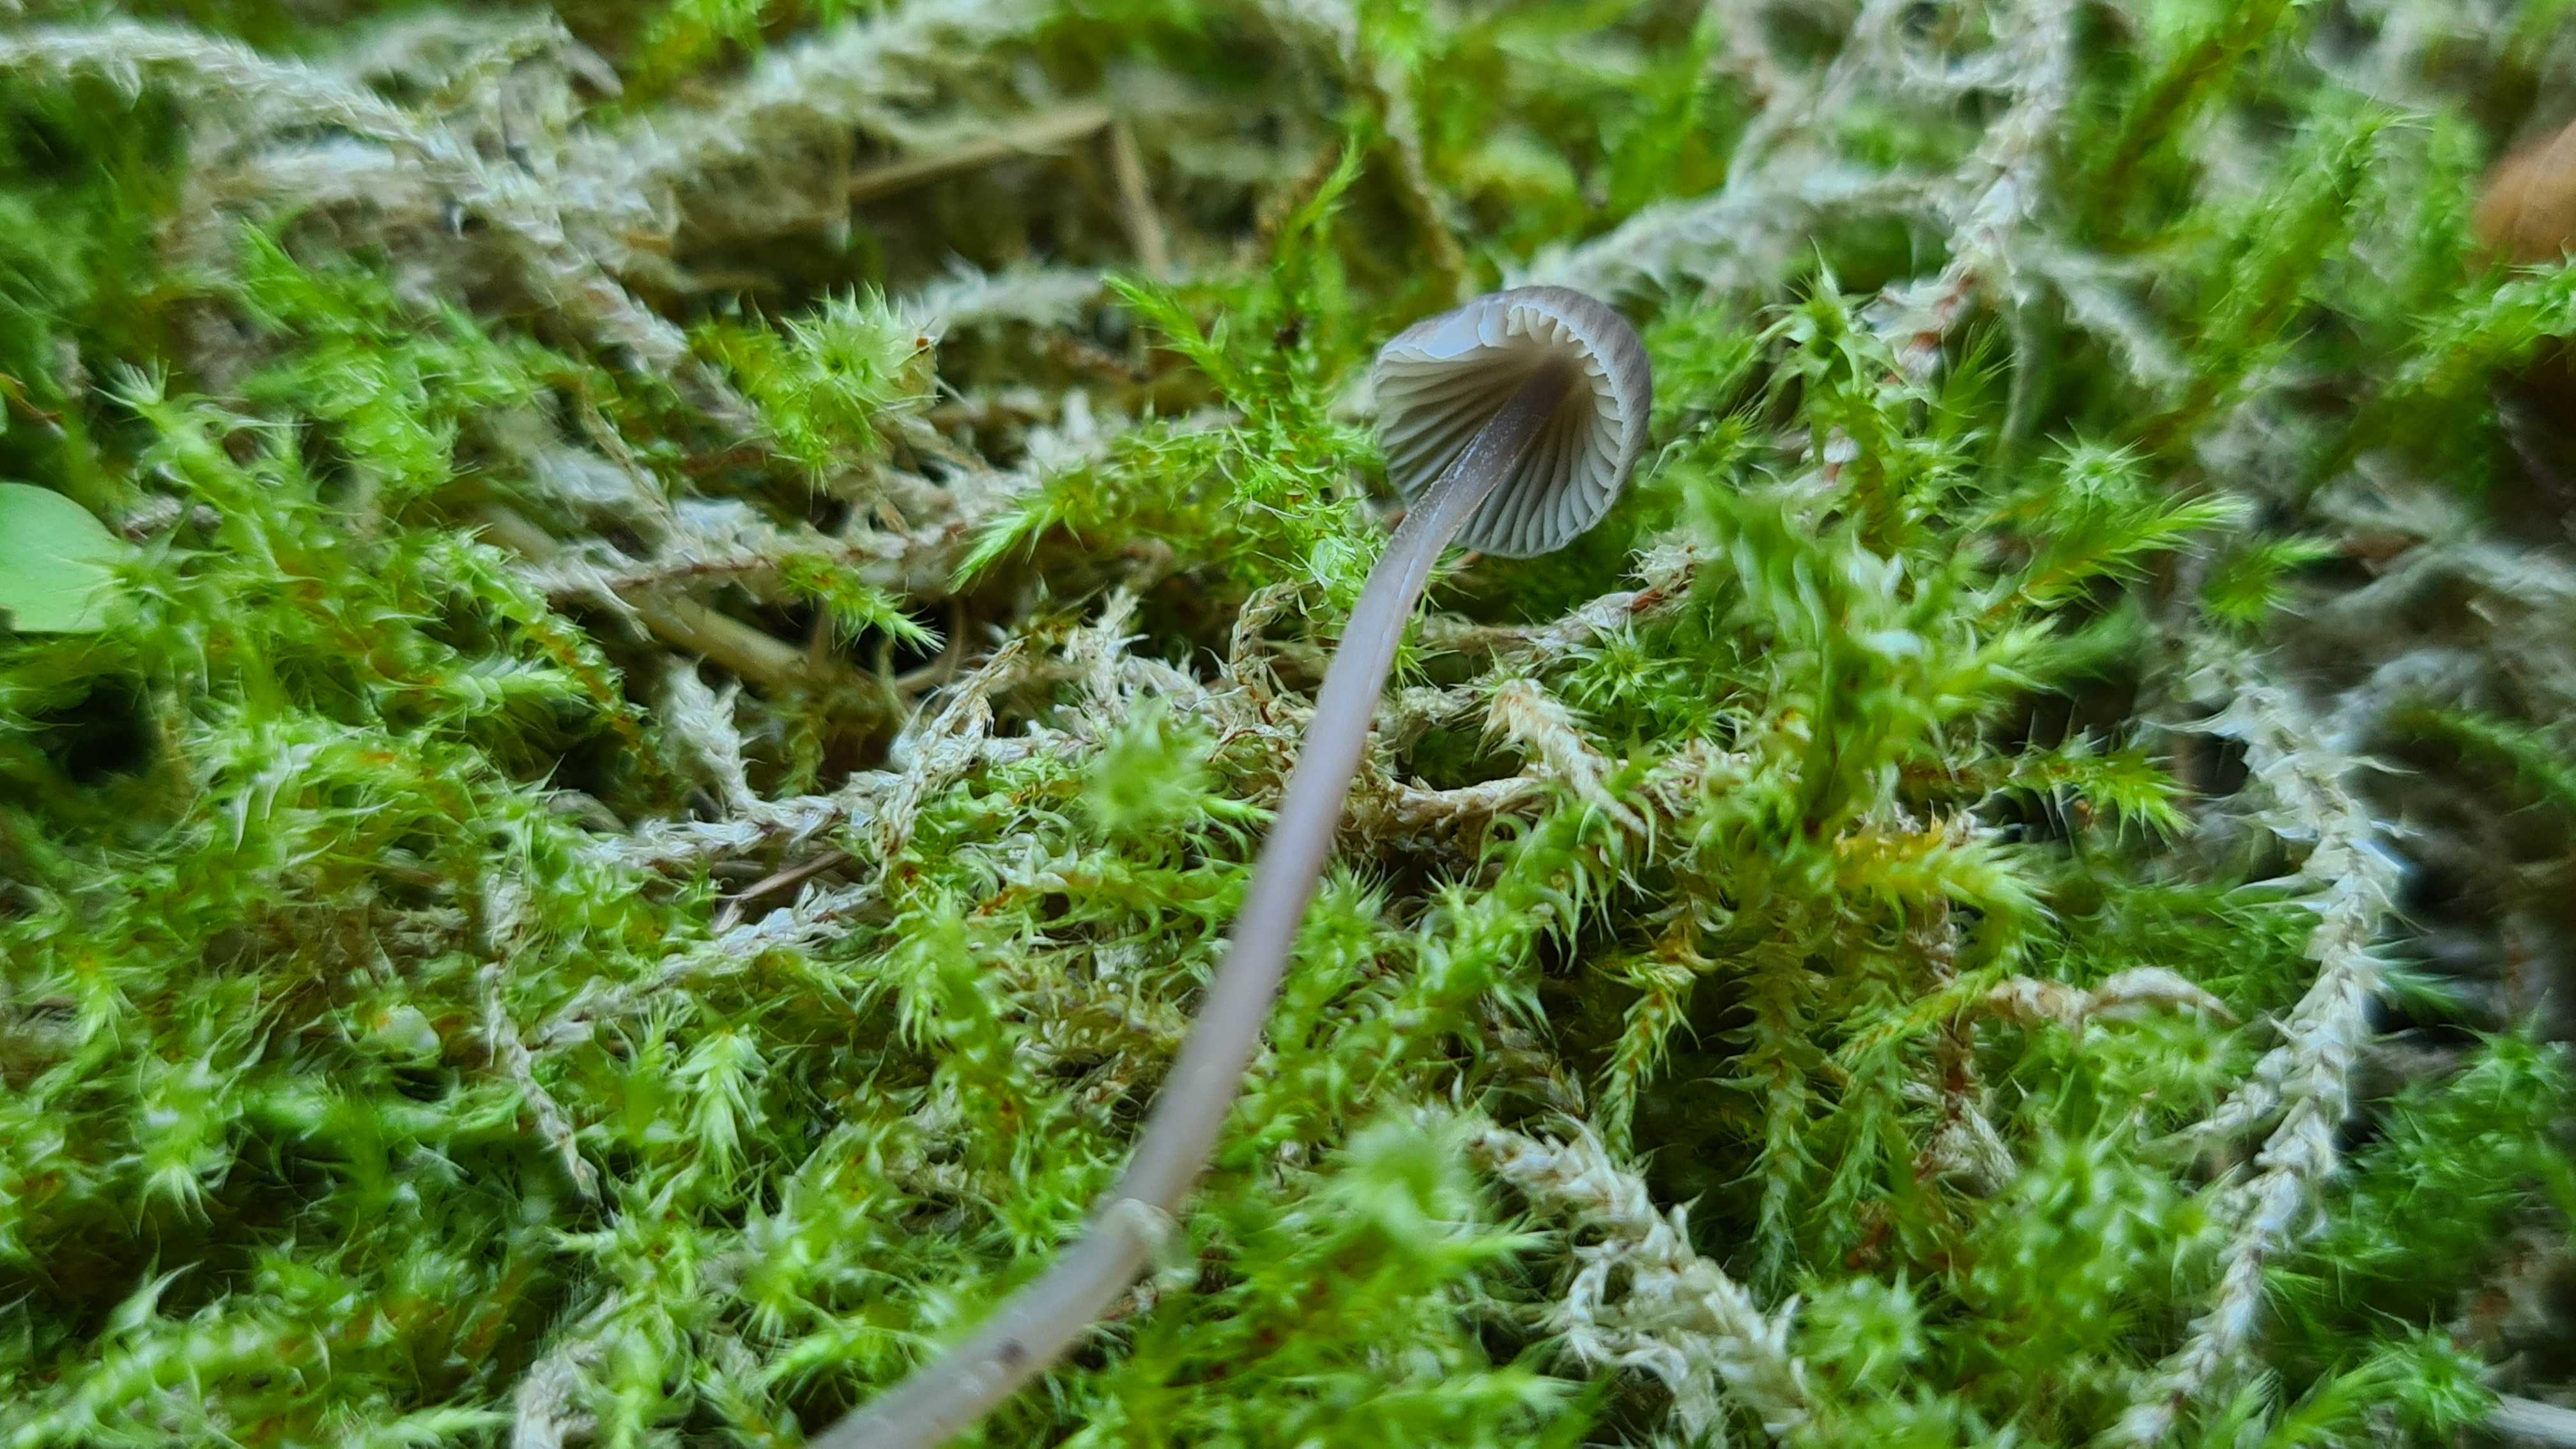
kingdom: Fungi
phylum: Basidiomycota
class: Agaricomycetes
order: Agaricales
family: Mycenaceae
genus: Mycena
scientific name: Mycena
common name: huesvamp
